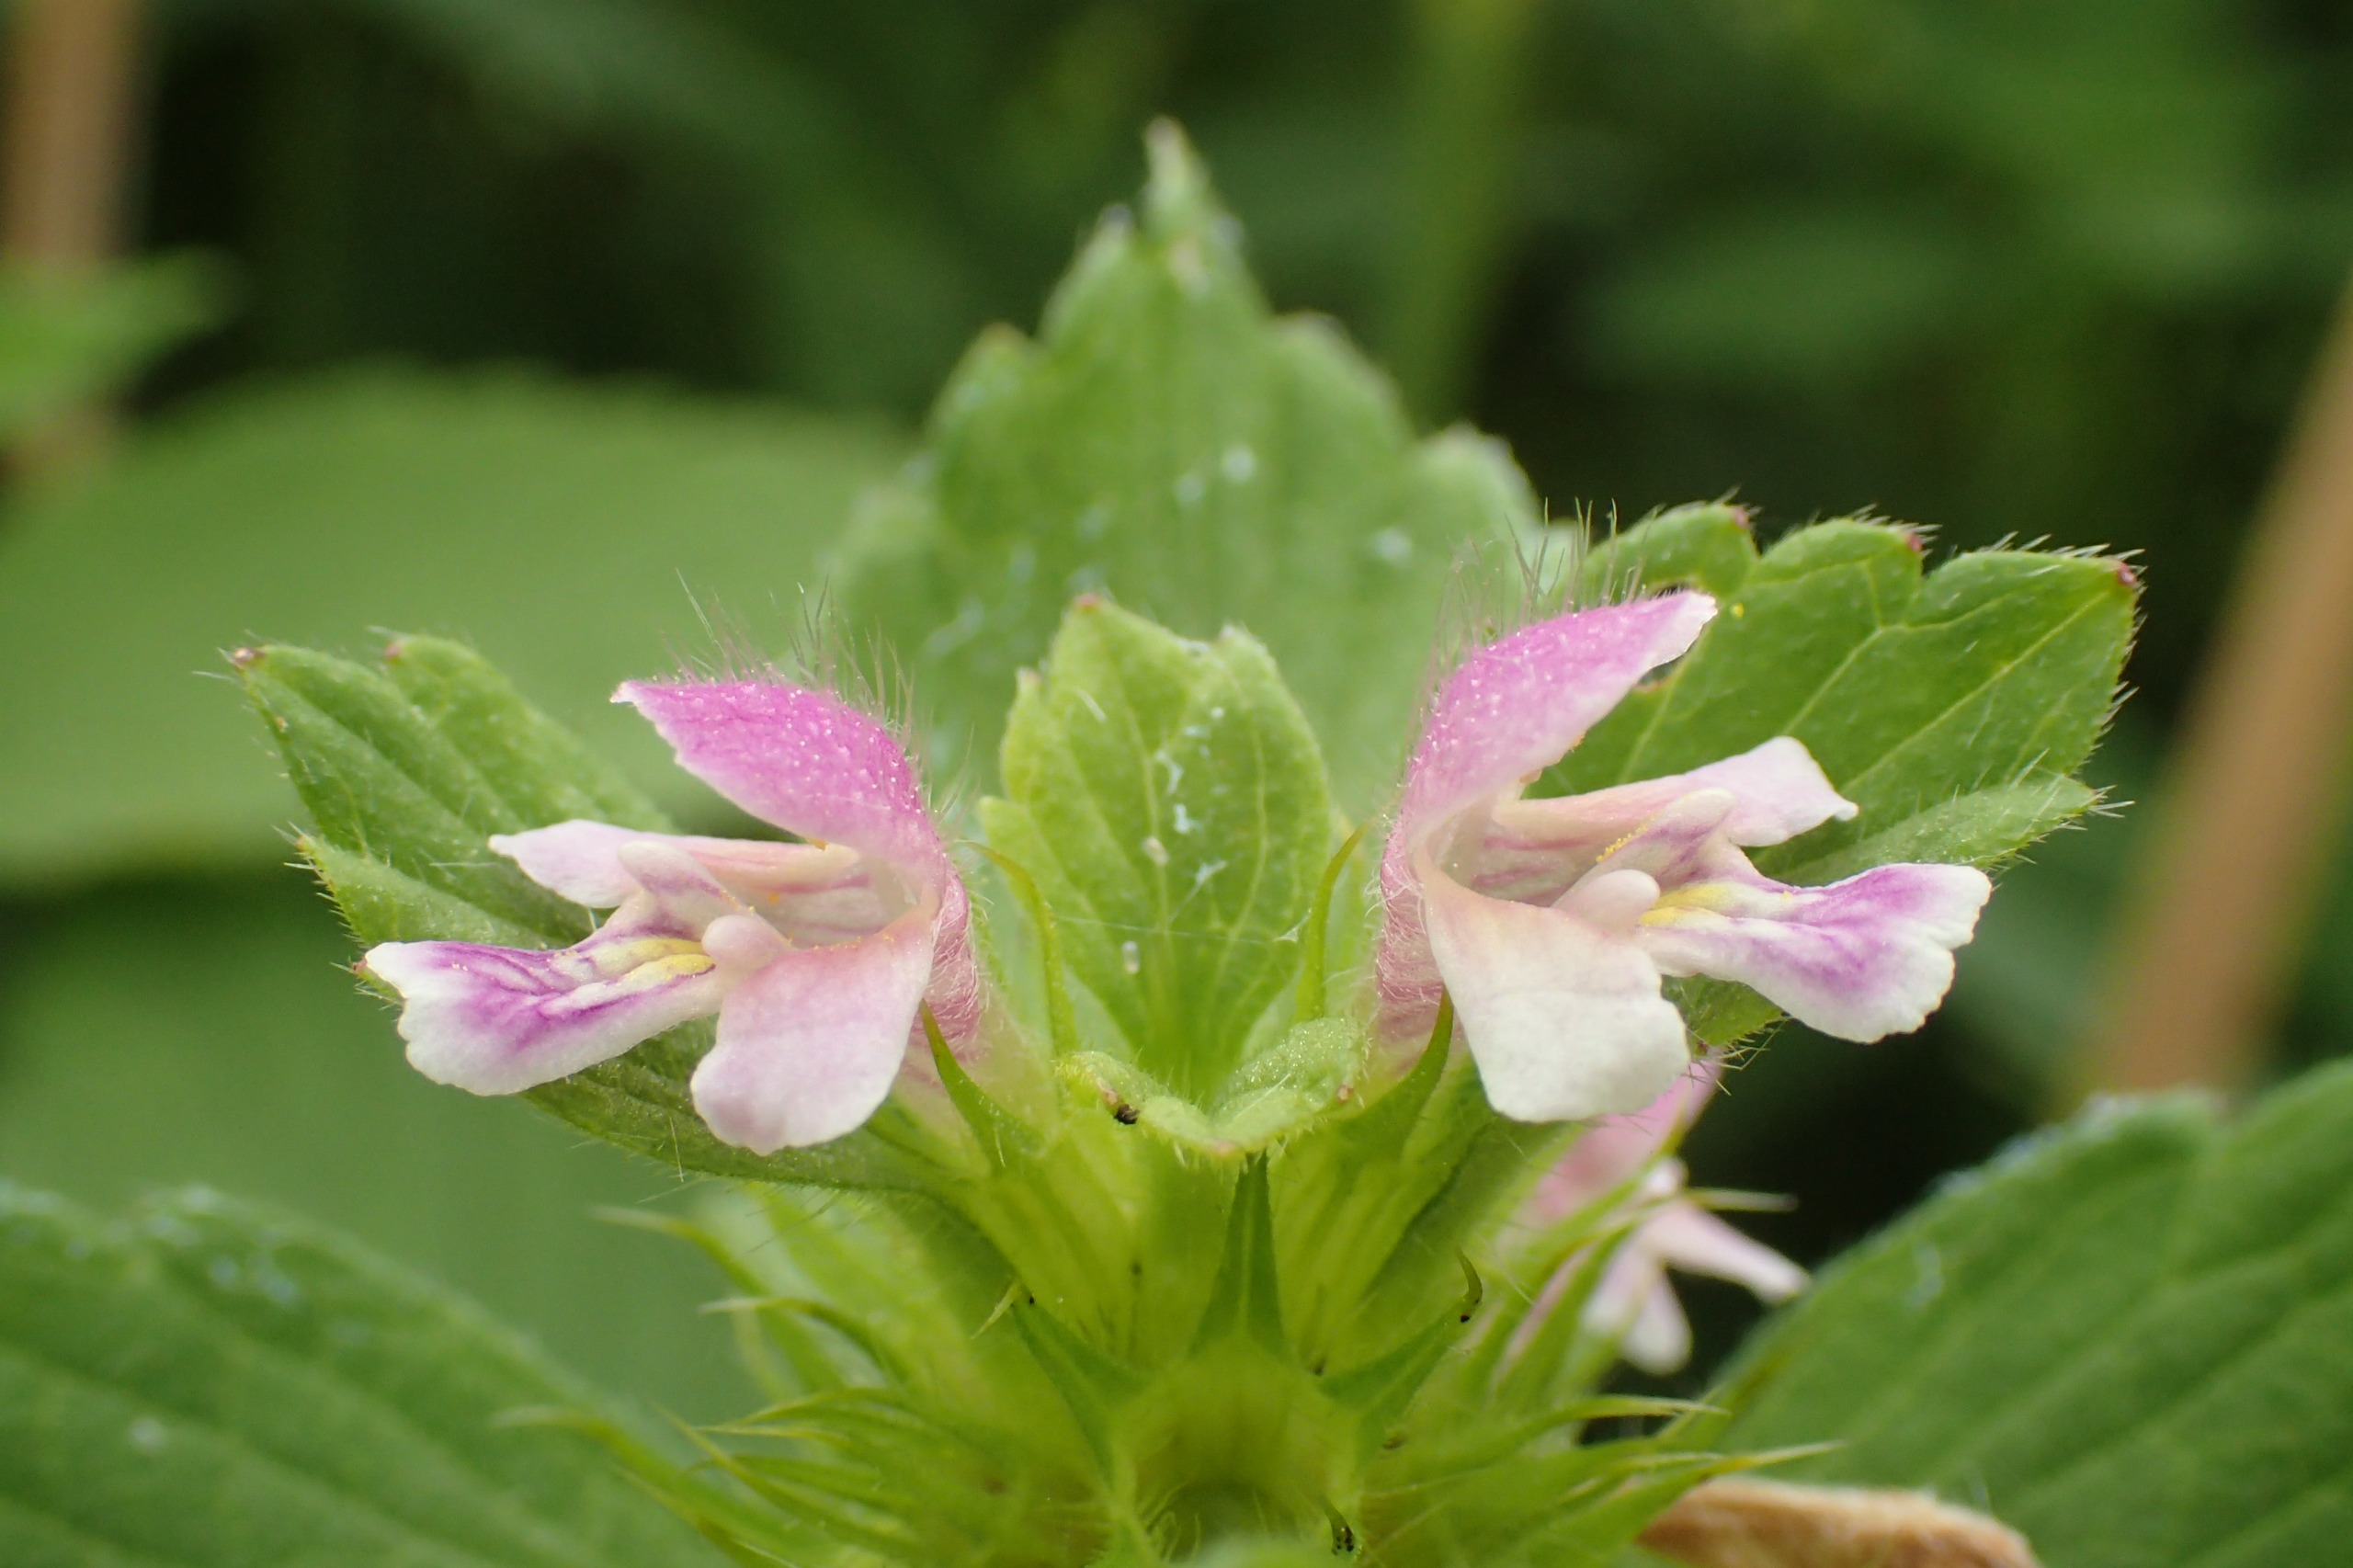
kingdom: Plantae
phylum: Tracheophyta
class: Magnoliopsida
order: Lamiales
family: Lamiaceae
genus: Galeopsis
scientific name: Galeopsis bifida
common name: Skov-hanekro
